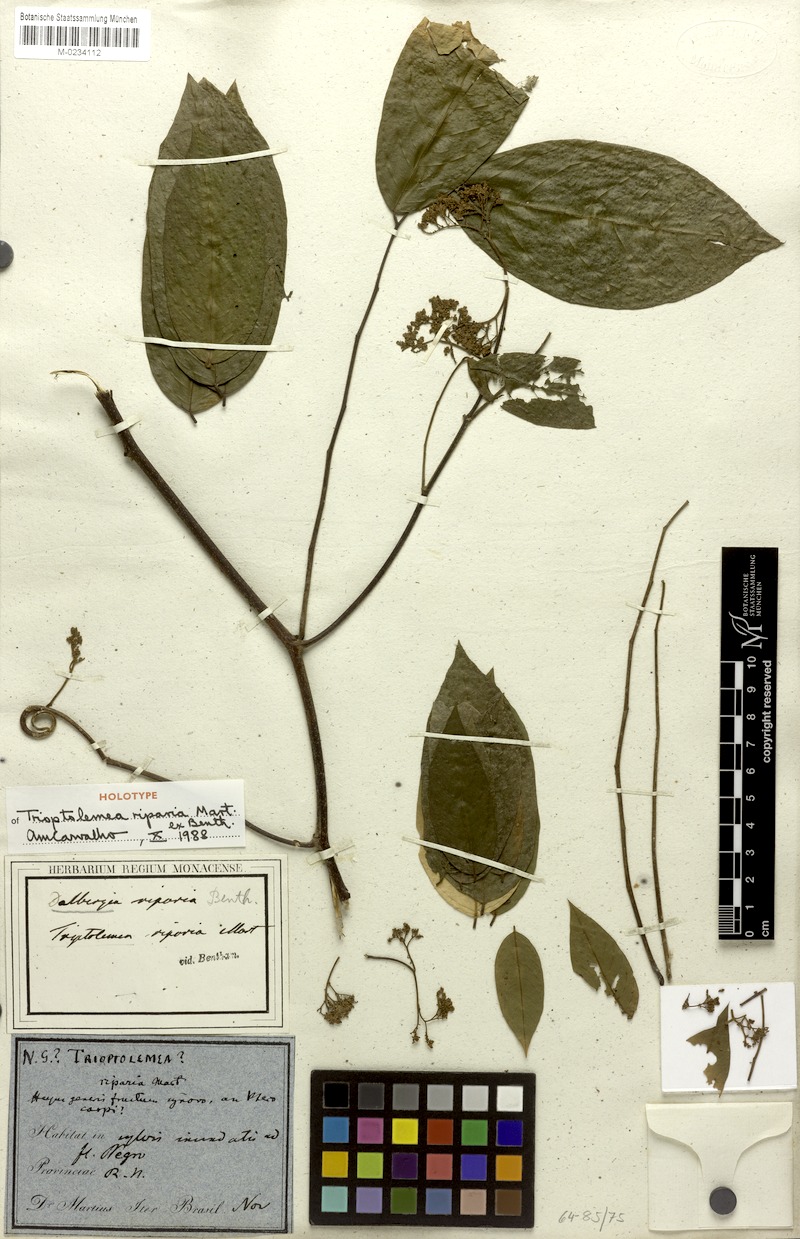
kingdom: Plantae
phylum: Tracheophyta
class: Magnoliopsida
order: Fabales
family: Fabaceae
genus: Dalbergia
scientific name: Dalbergia riparia
